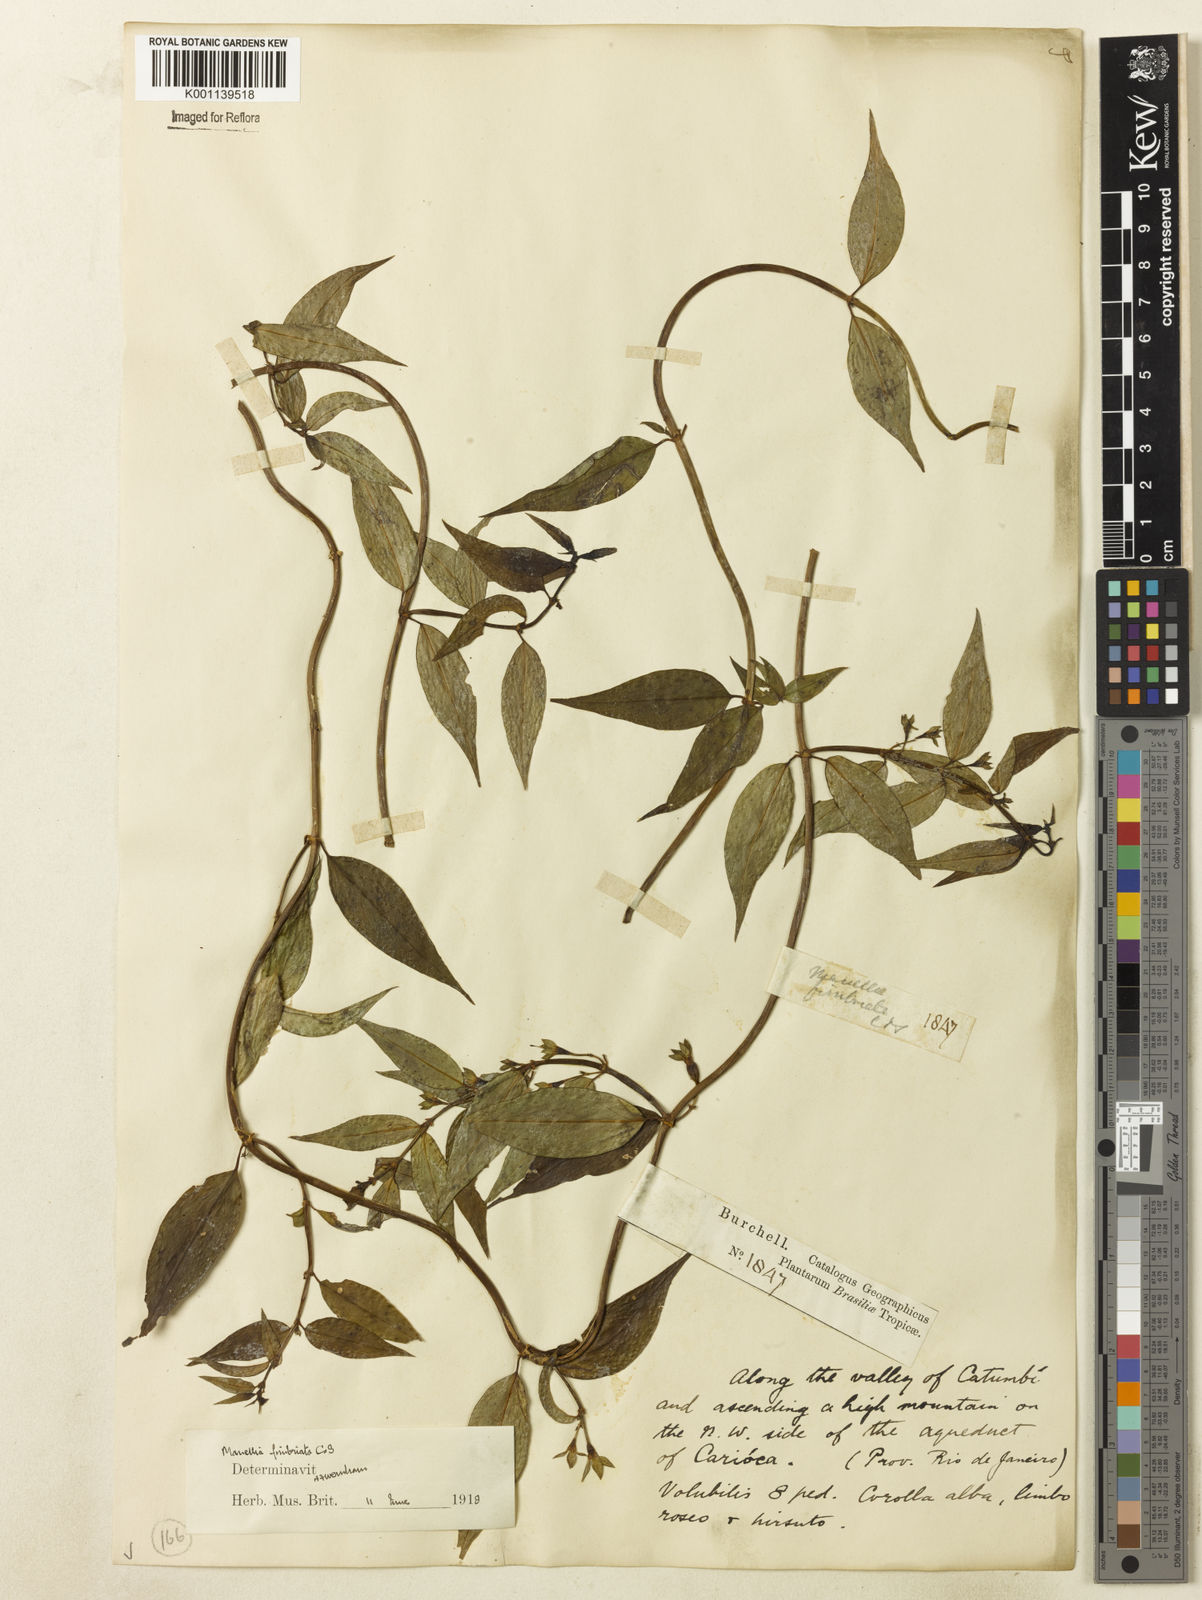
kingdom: Plantae
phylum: Tracheophyta
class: Magnoliopsida
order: Gentianales
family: Rubiaceae
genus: Manettia
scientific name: Manettia fimbriata
